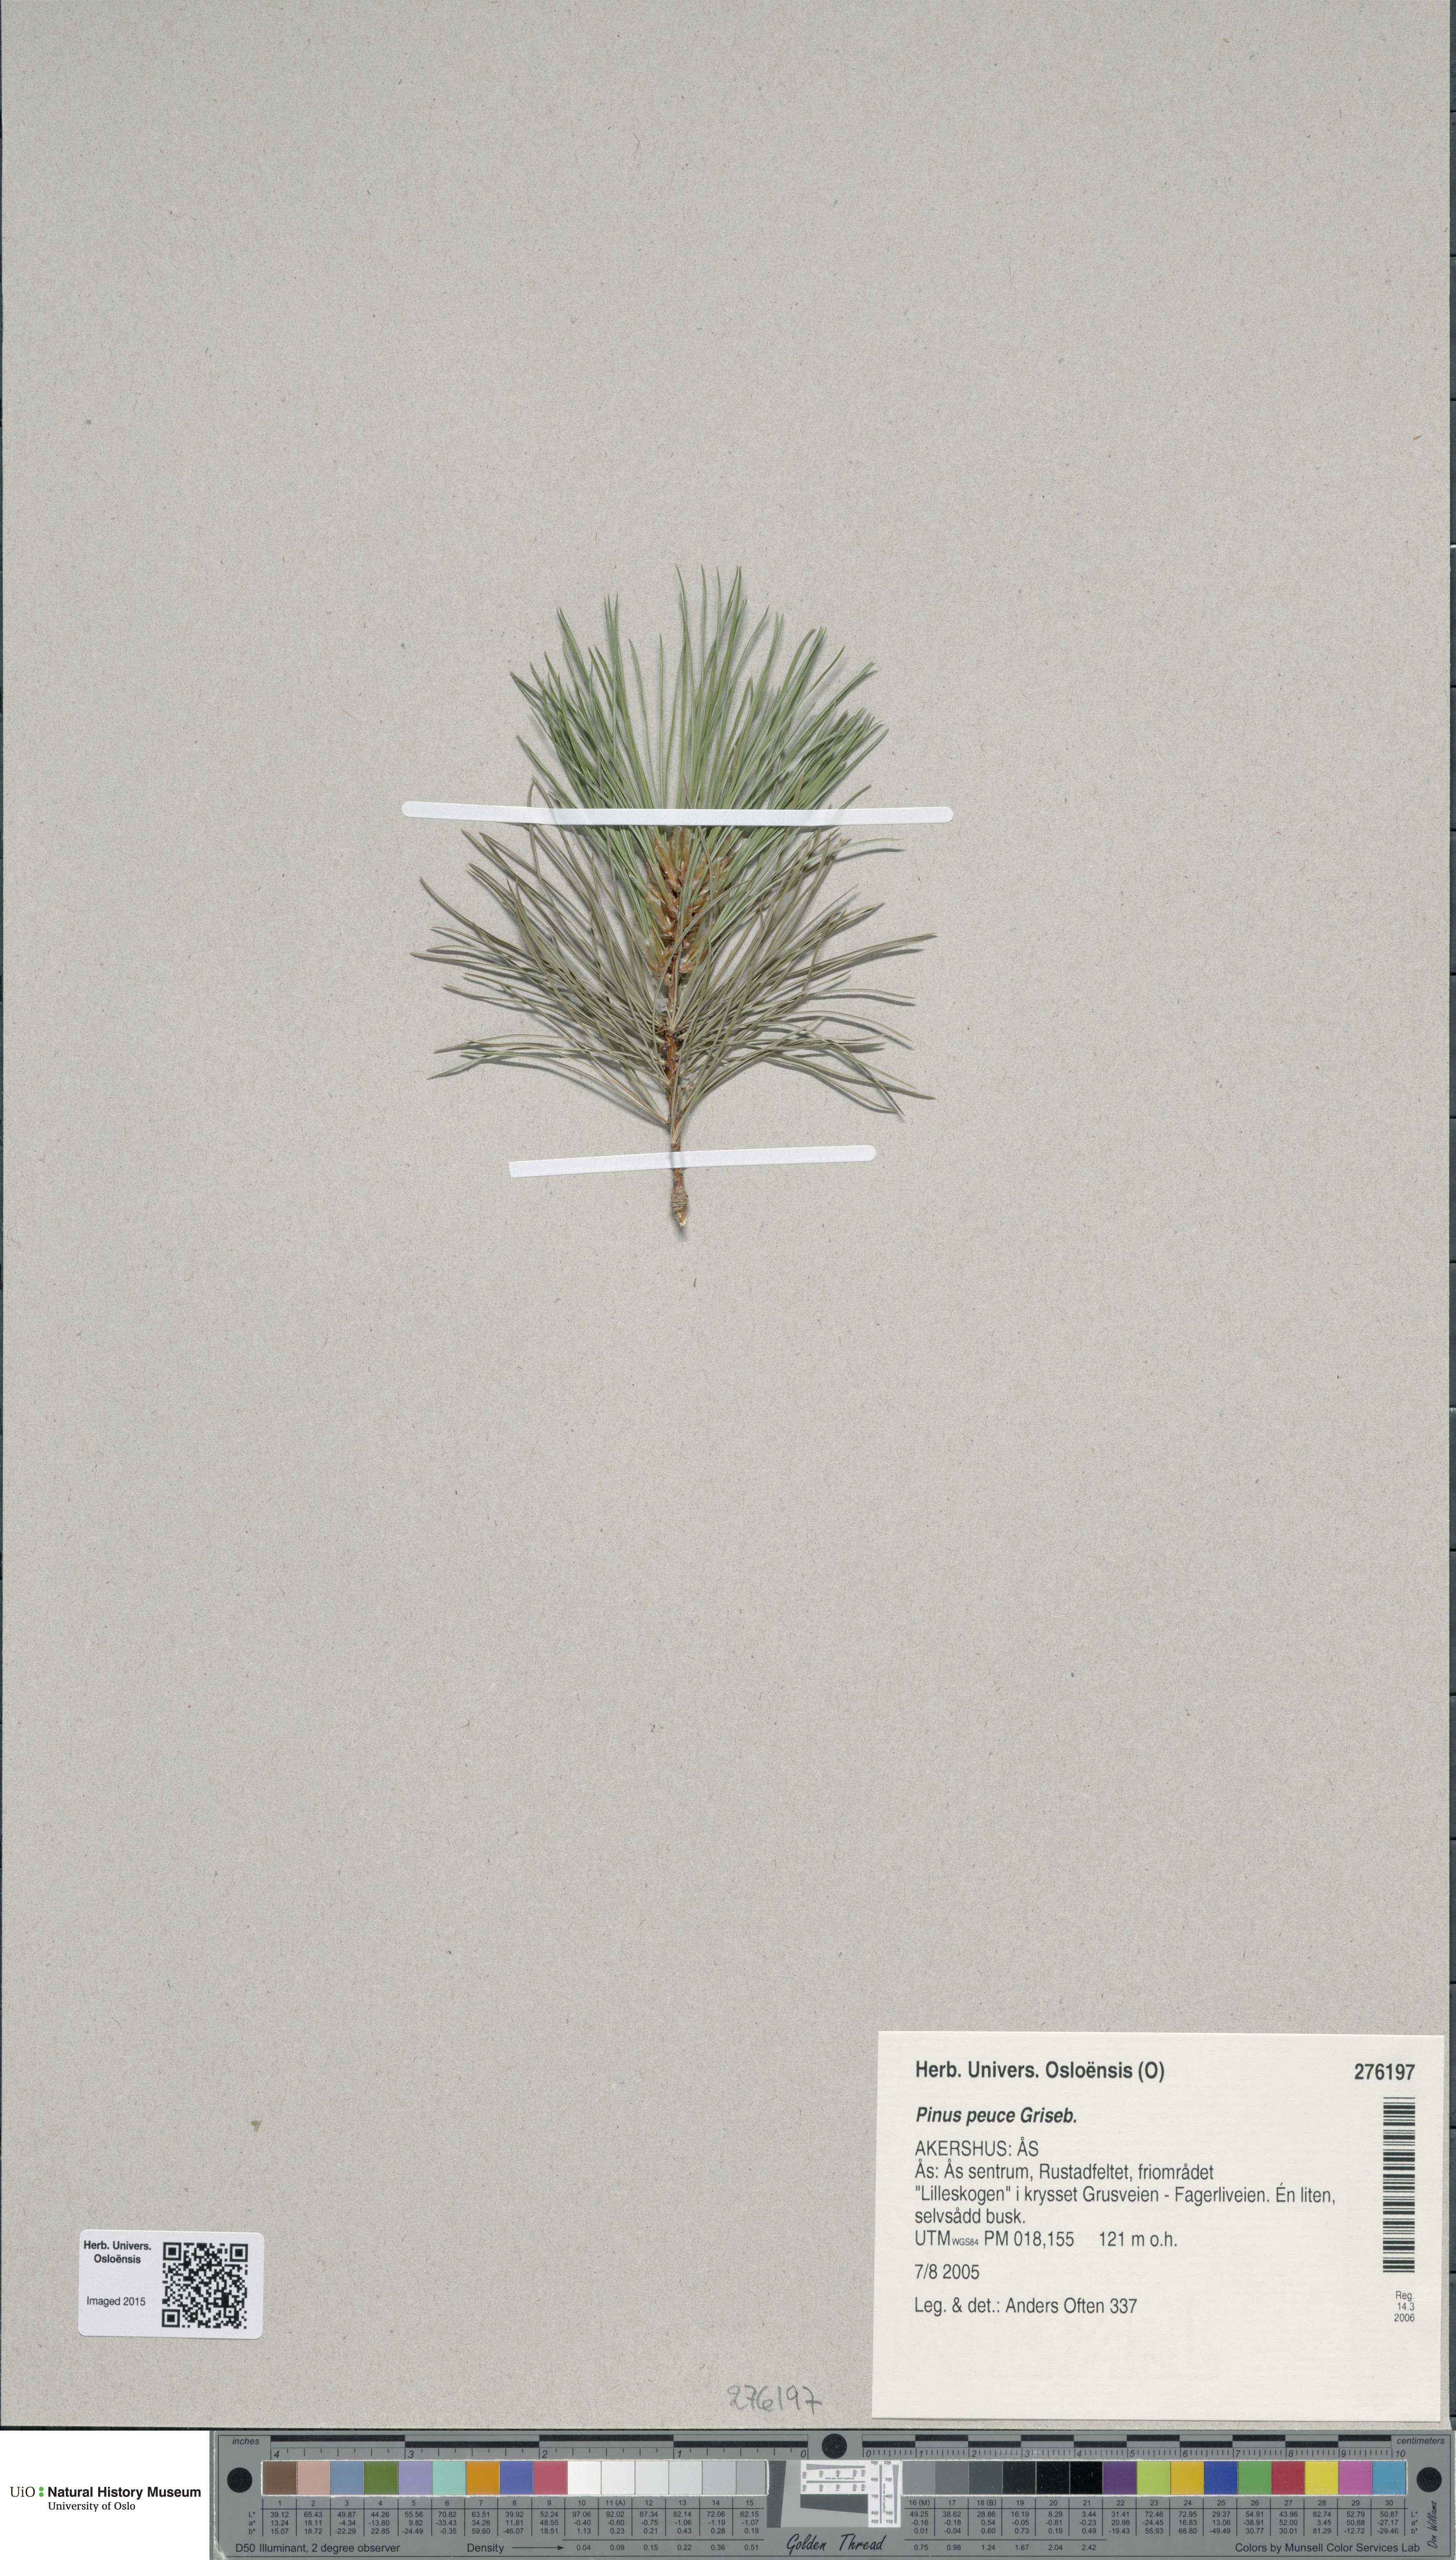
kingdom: Plantae
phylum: Tracheophyta
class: Pinopsida
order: Pinales
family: Pinaceae
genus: Pinus
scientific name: Pinus peuce
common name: Macedonian pine
